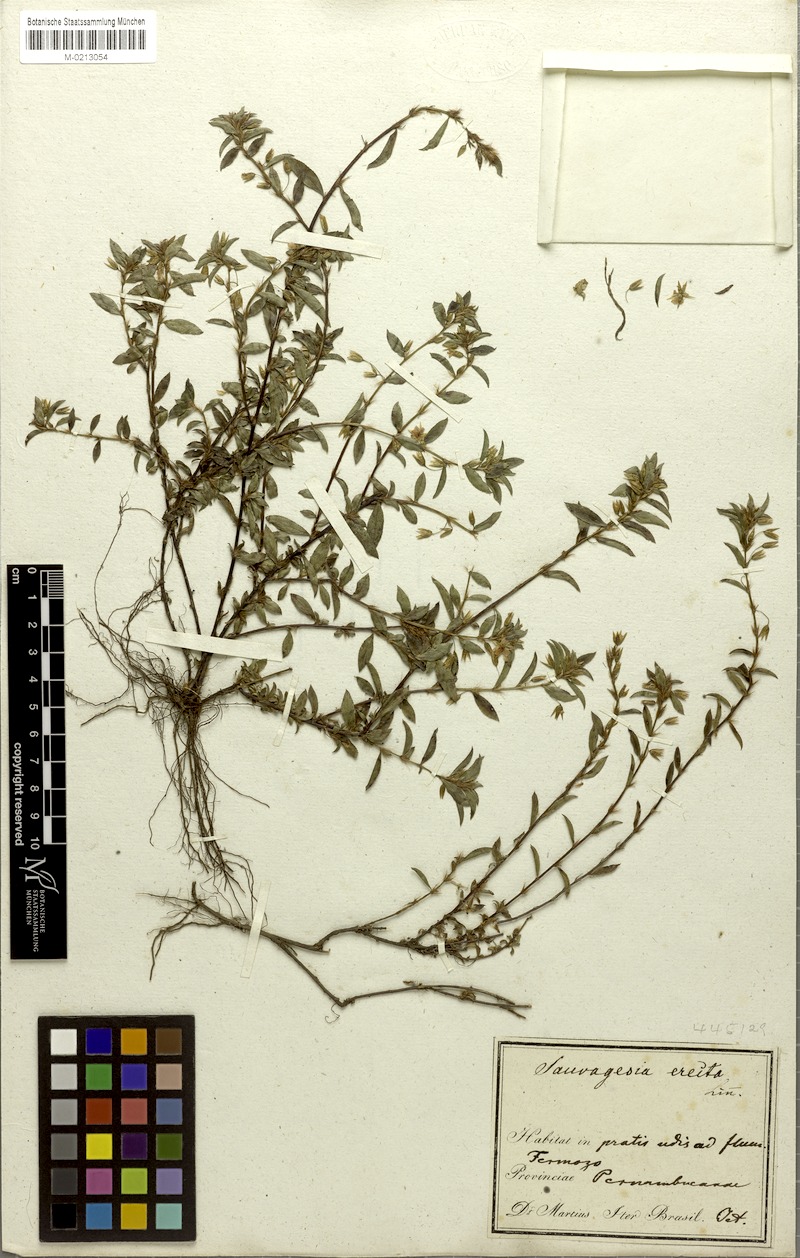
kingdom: Plantae
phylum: Tracheophyta
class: Magnoliopsida
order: Malpighiales
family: Ochnaceae
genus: Sauvagesia
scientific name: Sauvagesia erecta
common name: Creole tea
